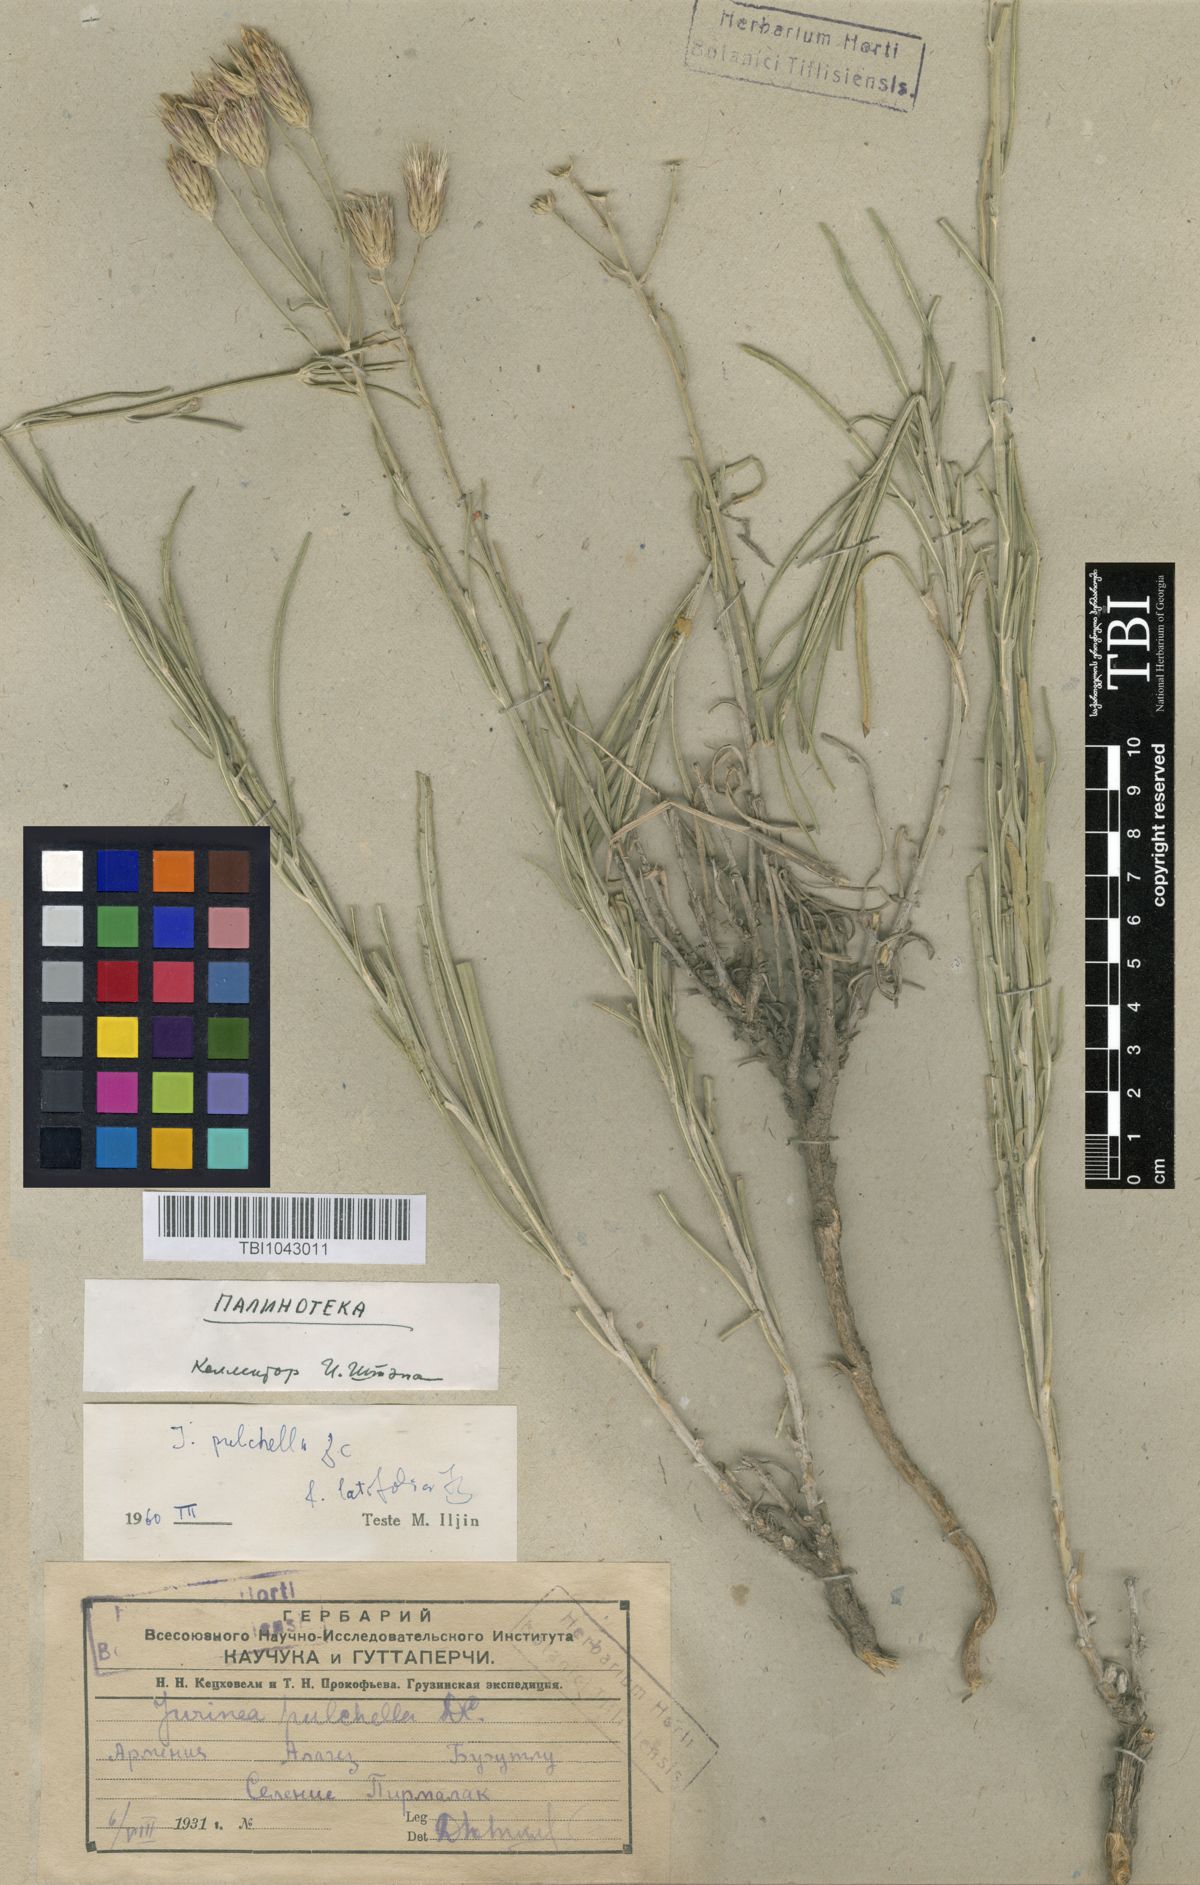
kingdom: Plantae
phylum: Tracheophyta
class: Magnoliopsida
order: Asterales
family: Asteraceae
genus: Jurinea
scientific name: Jurinea pulchella
